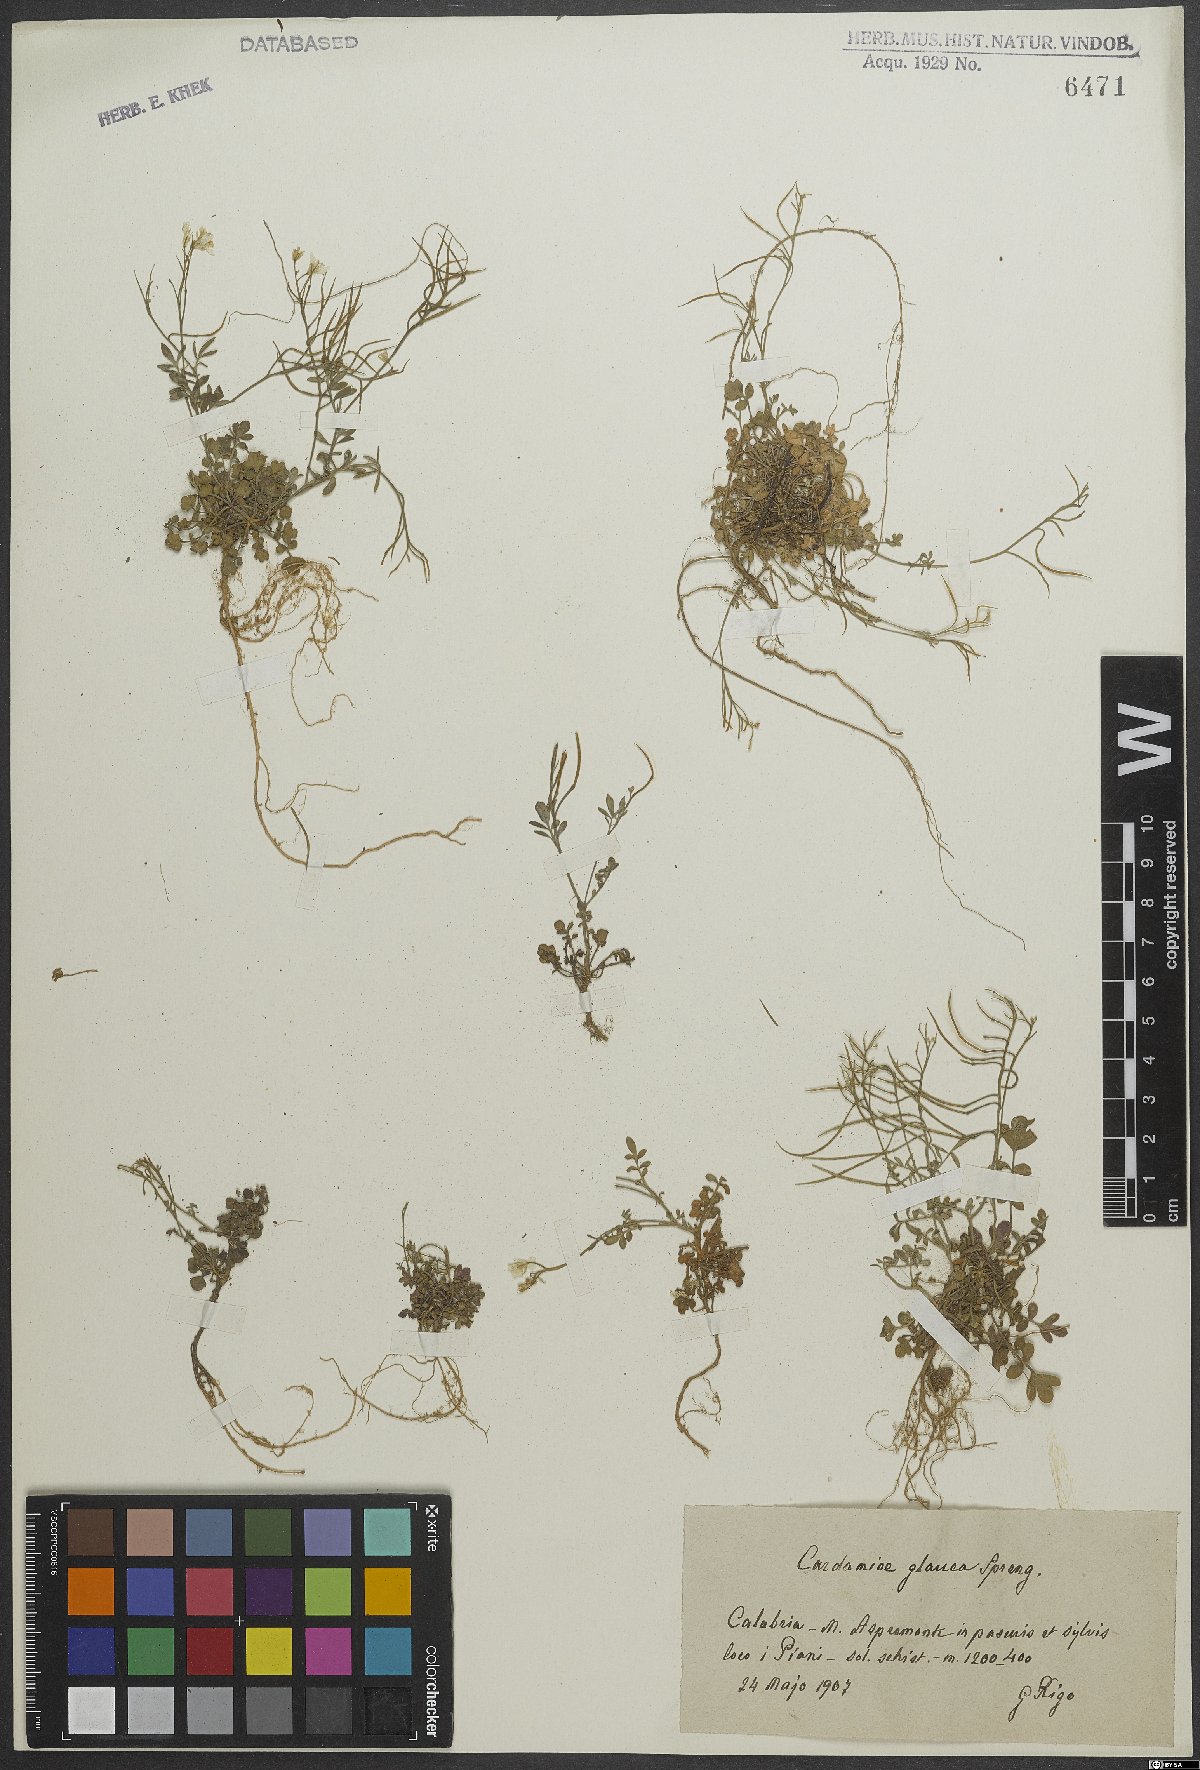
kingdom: Plantae
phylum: Tracheophyta
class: Magnoliopsida
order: Brassicales
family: Brassicaceae
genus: Cardamine
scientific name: Cardamine glauca
